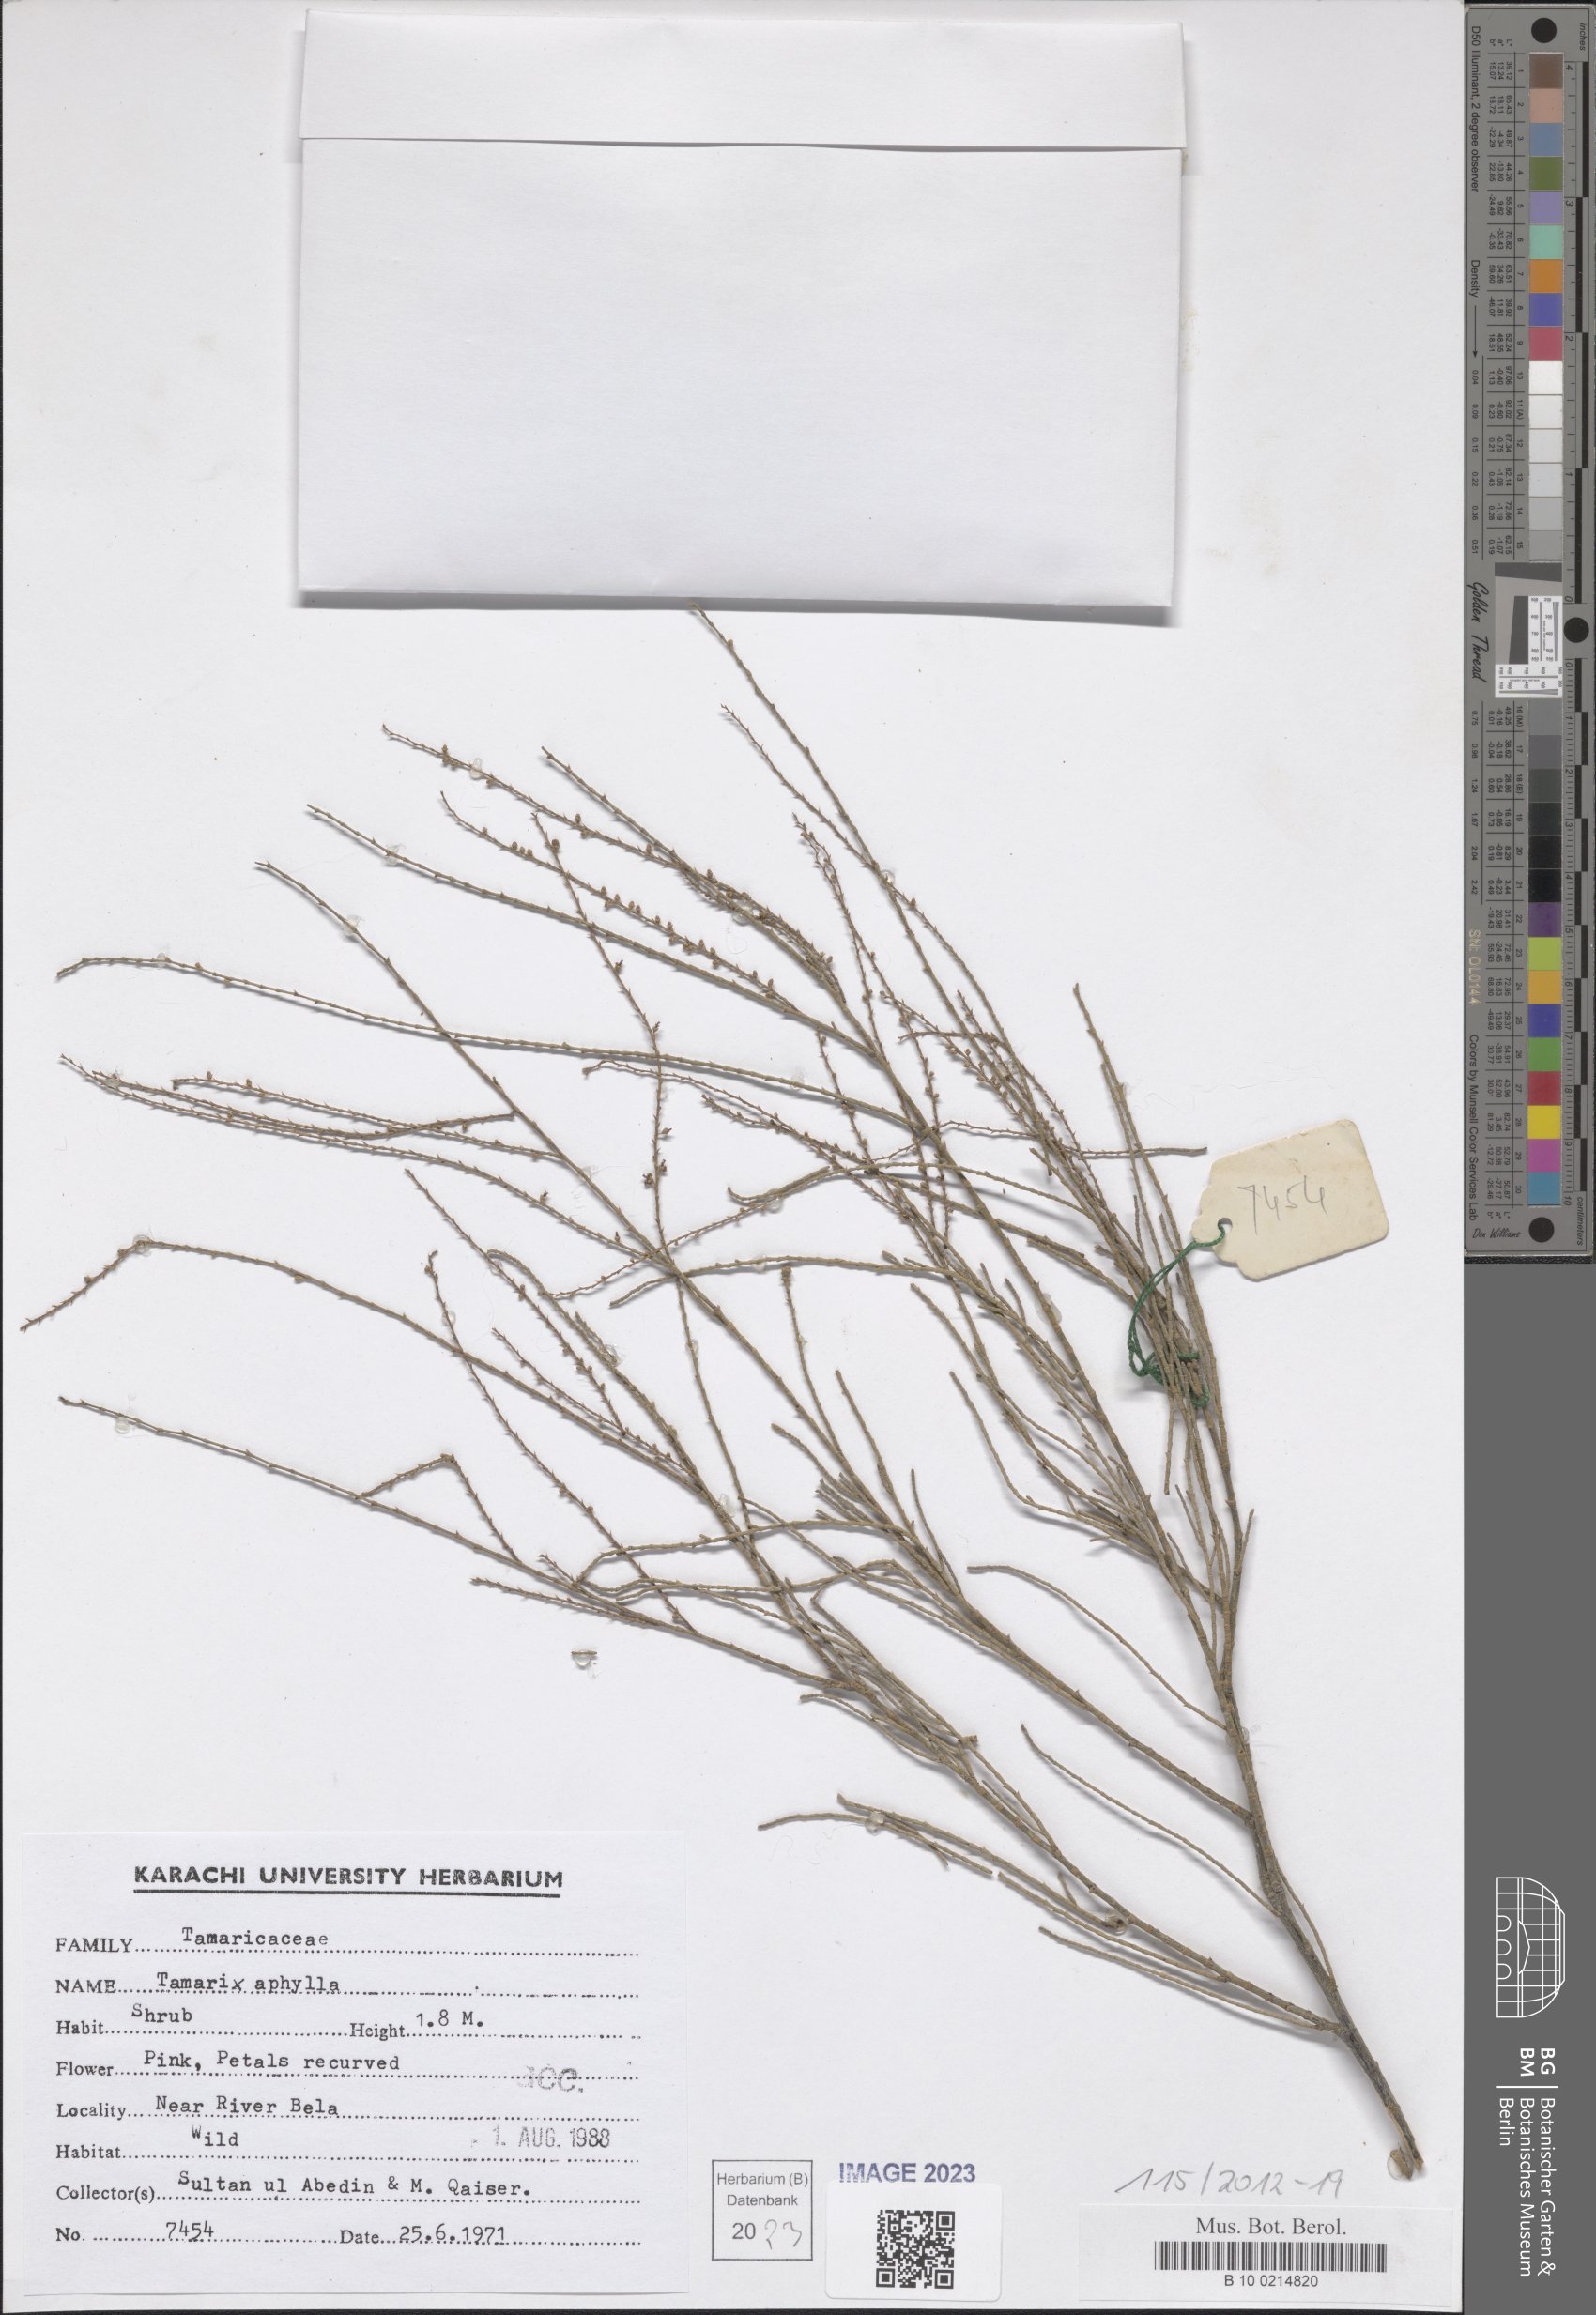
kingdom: Plantae
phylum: Tracheophyta
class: Magnoliopsida
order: Caryophyllales
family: Tamaricaceae
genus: Tamarix
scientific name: Tamarix aphylla
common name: Athel tamarisk
